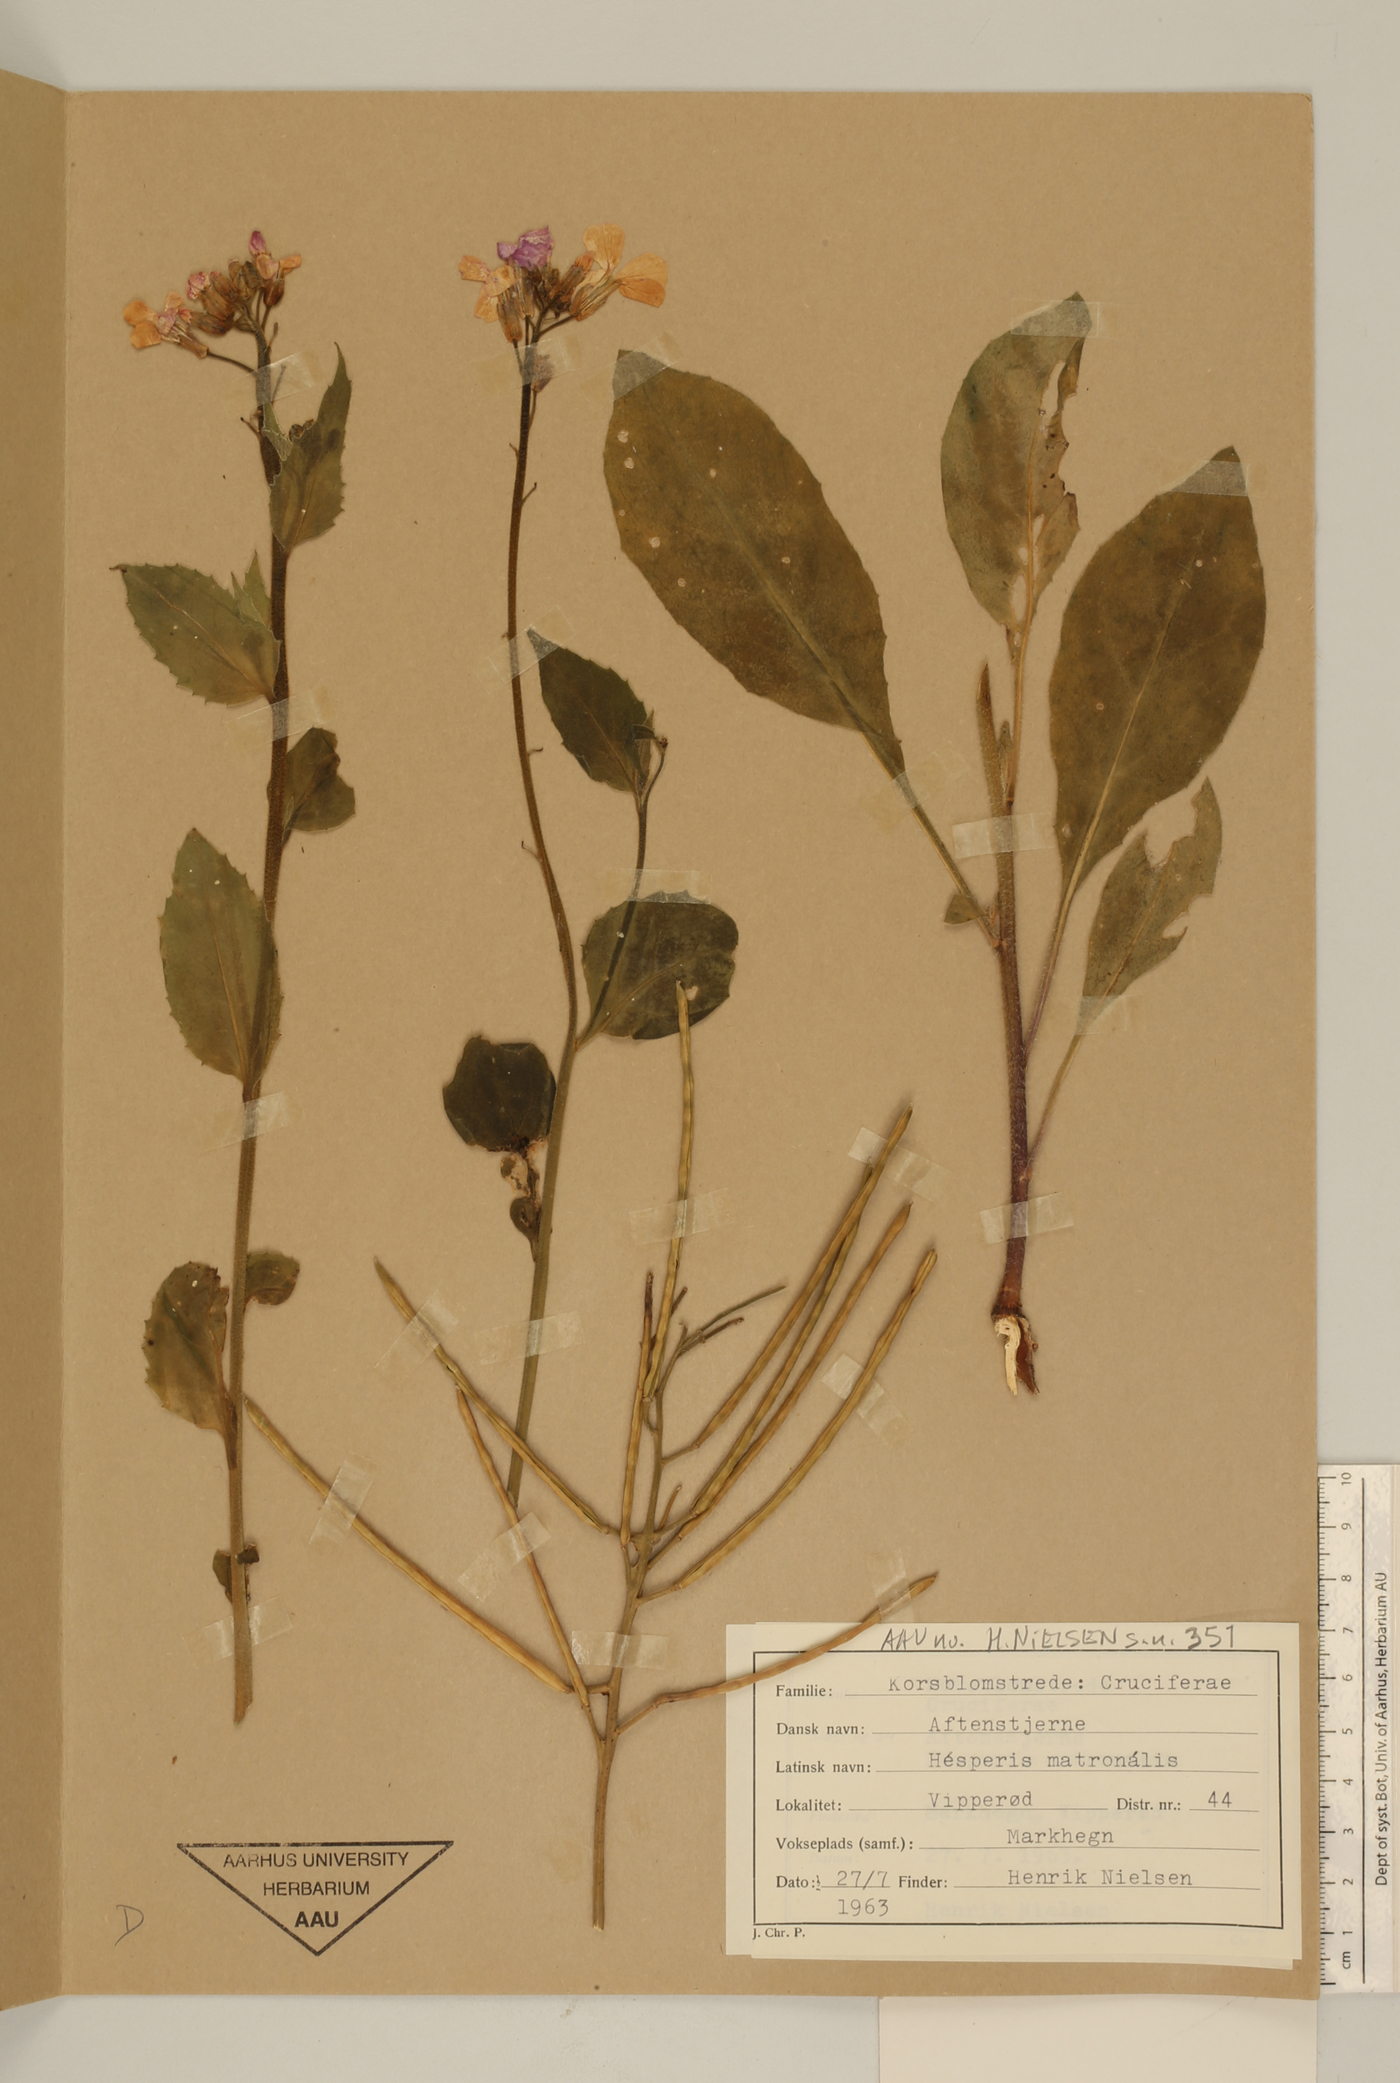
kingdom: Plantae
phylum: Tracheophyta
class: Magnoliopsida
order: Brassicales
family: Brassicaceae
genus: Hesperis
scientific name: Hesperis matronalis
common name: Dame's-violet
